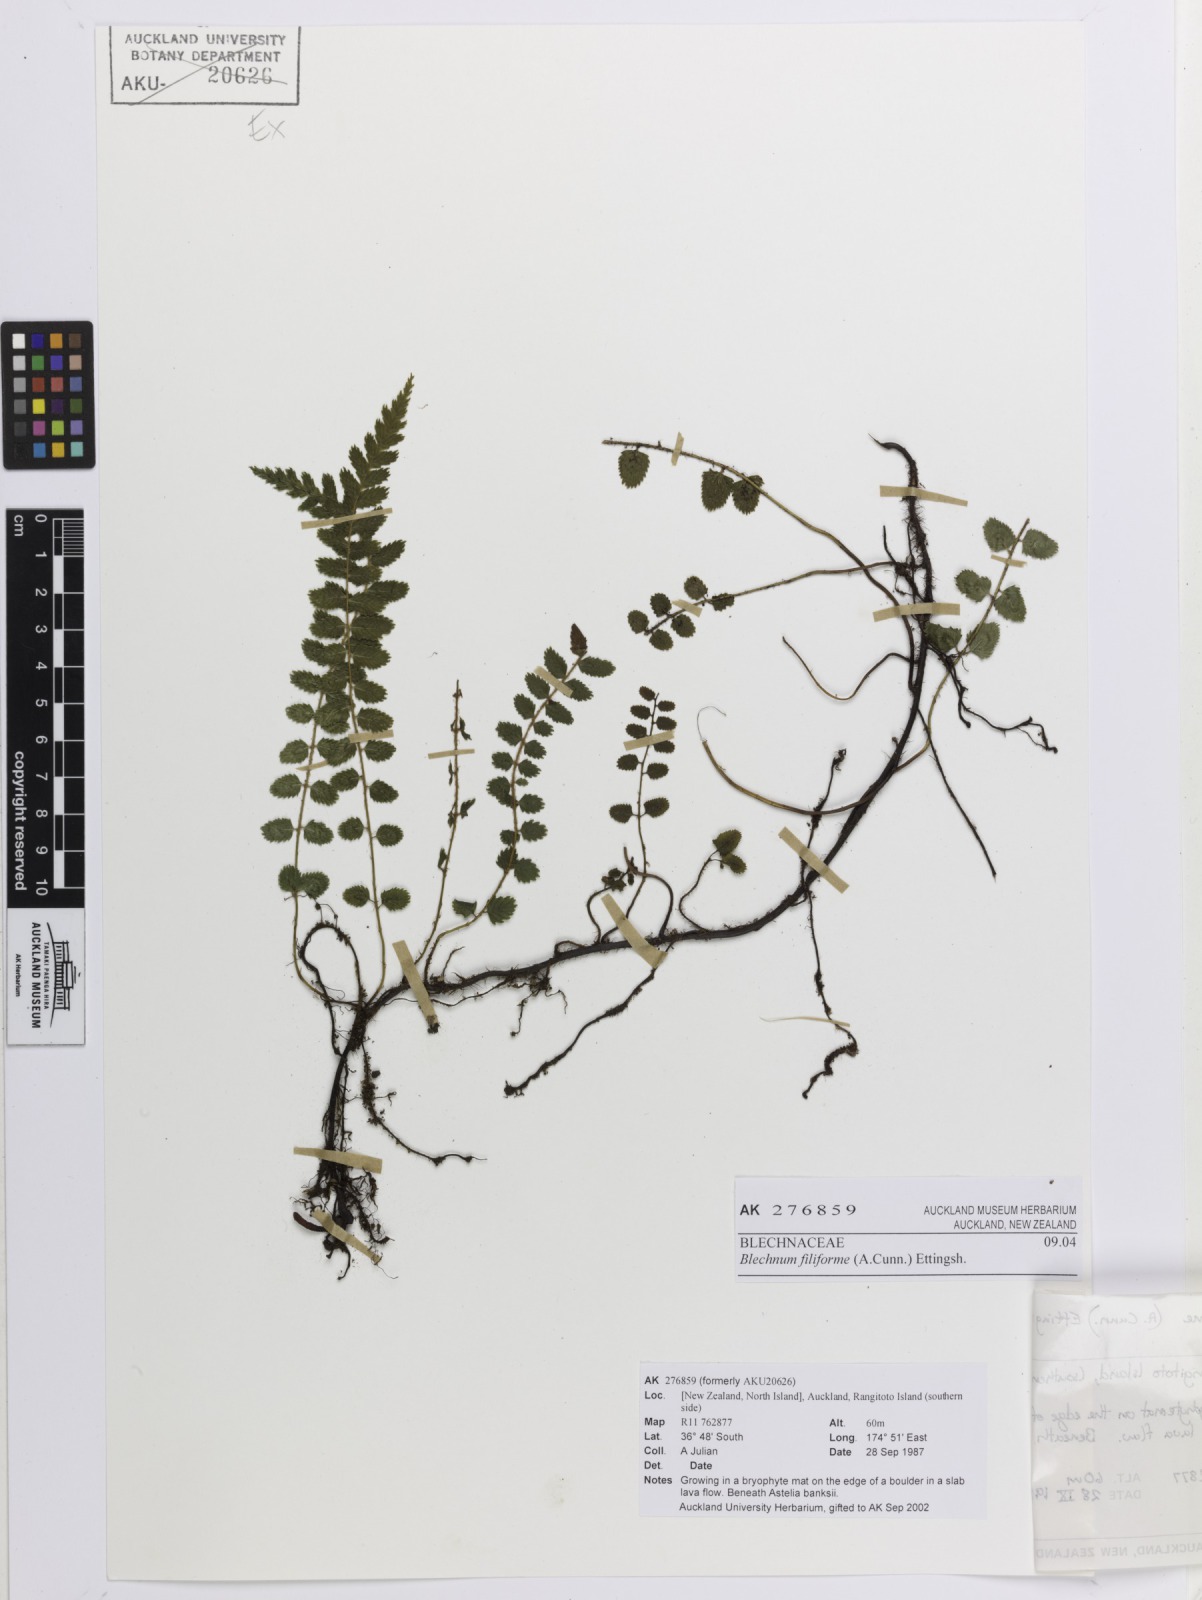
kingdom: Plantae
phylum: Tracheophyta
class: Polypodiopsida
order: Polypodiales
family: Blechnaceae
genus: Icarus
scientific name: Icarus filiformis
